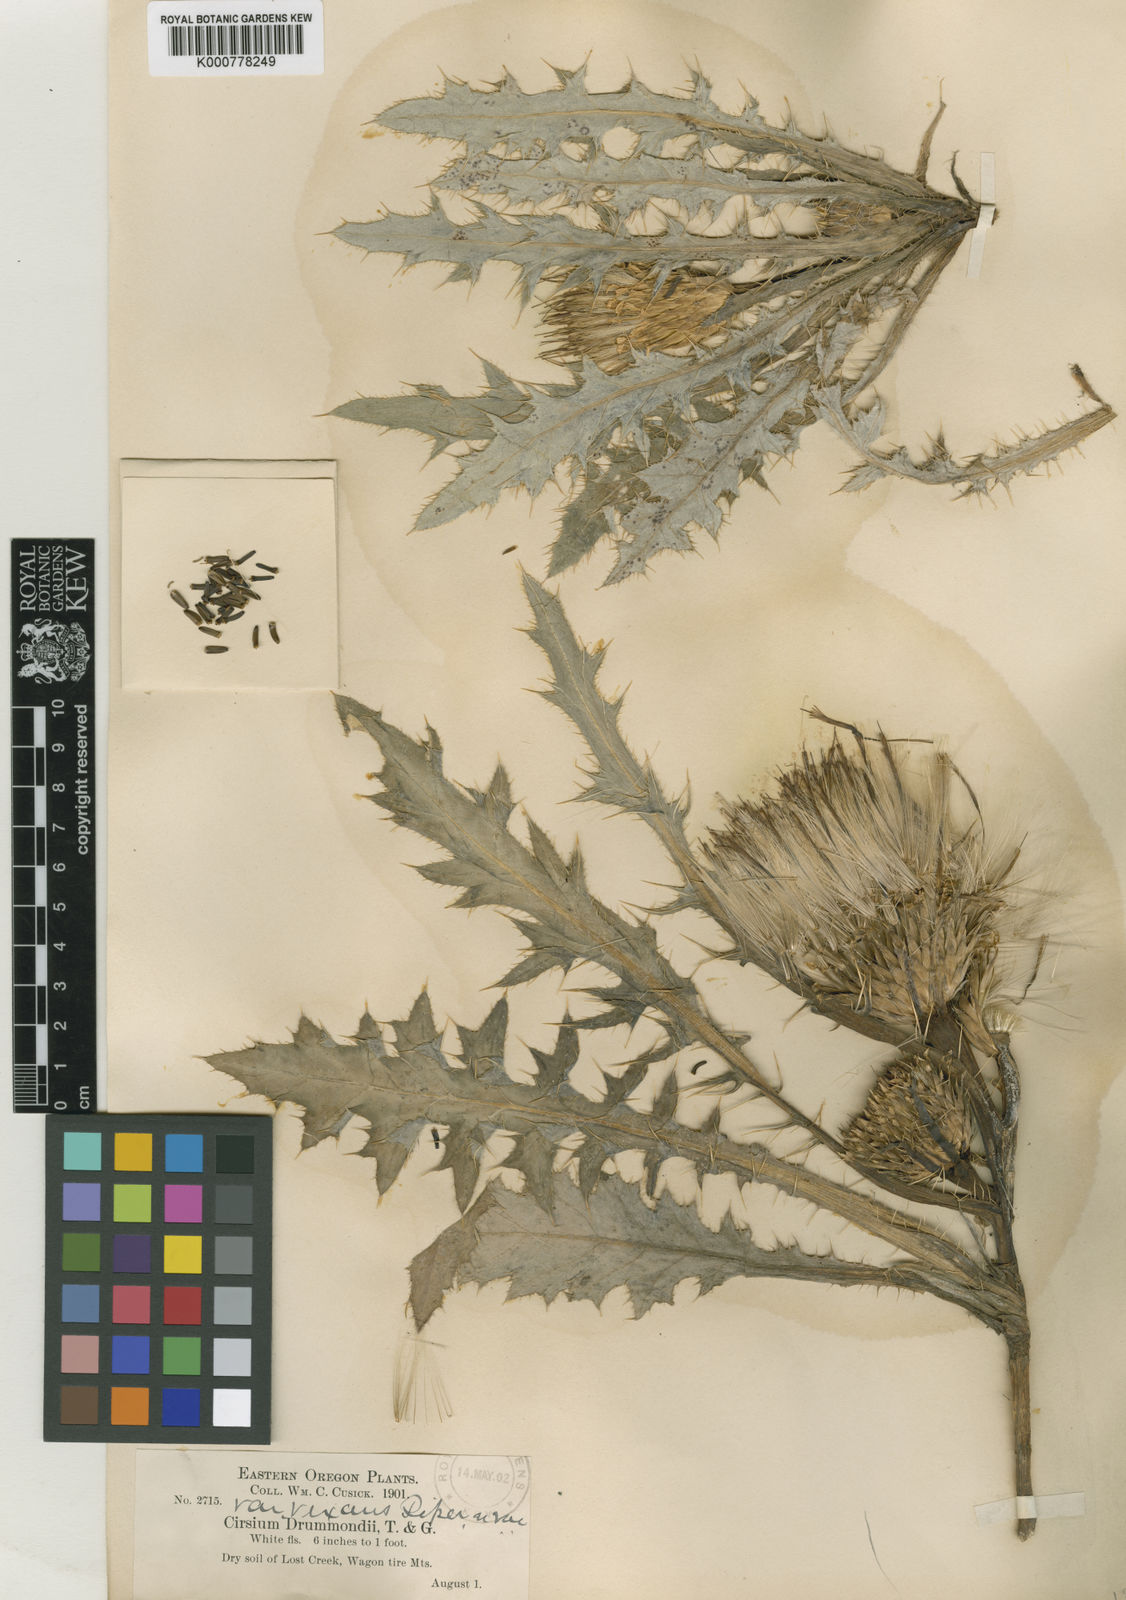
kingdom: Plantae
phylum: Tracheophyta
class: Magnoliopsida
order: Asterales
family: Asteraceae
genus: Cirsium
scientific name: Cirsium drummondii
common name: Drummond's thistle
